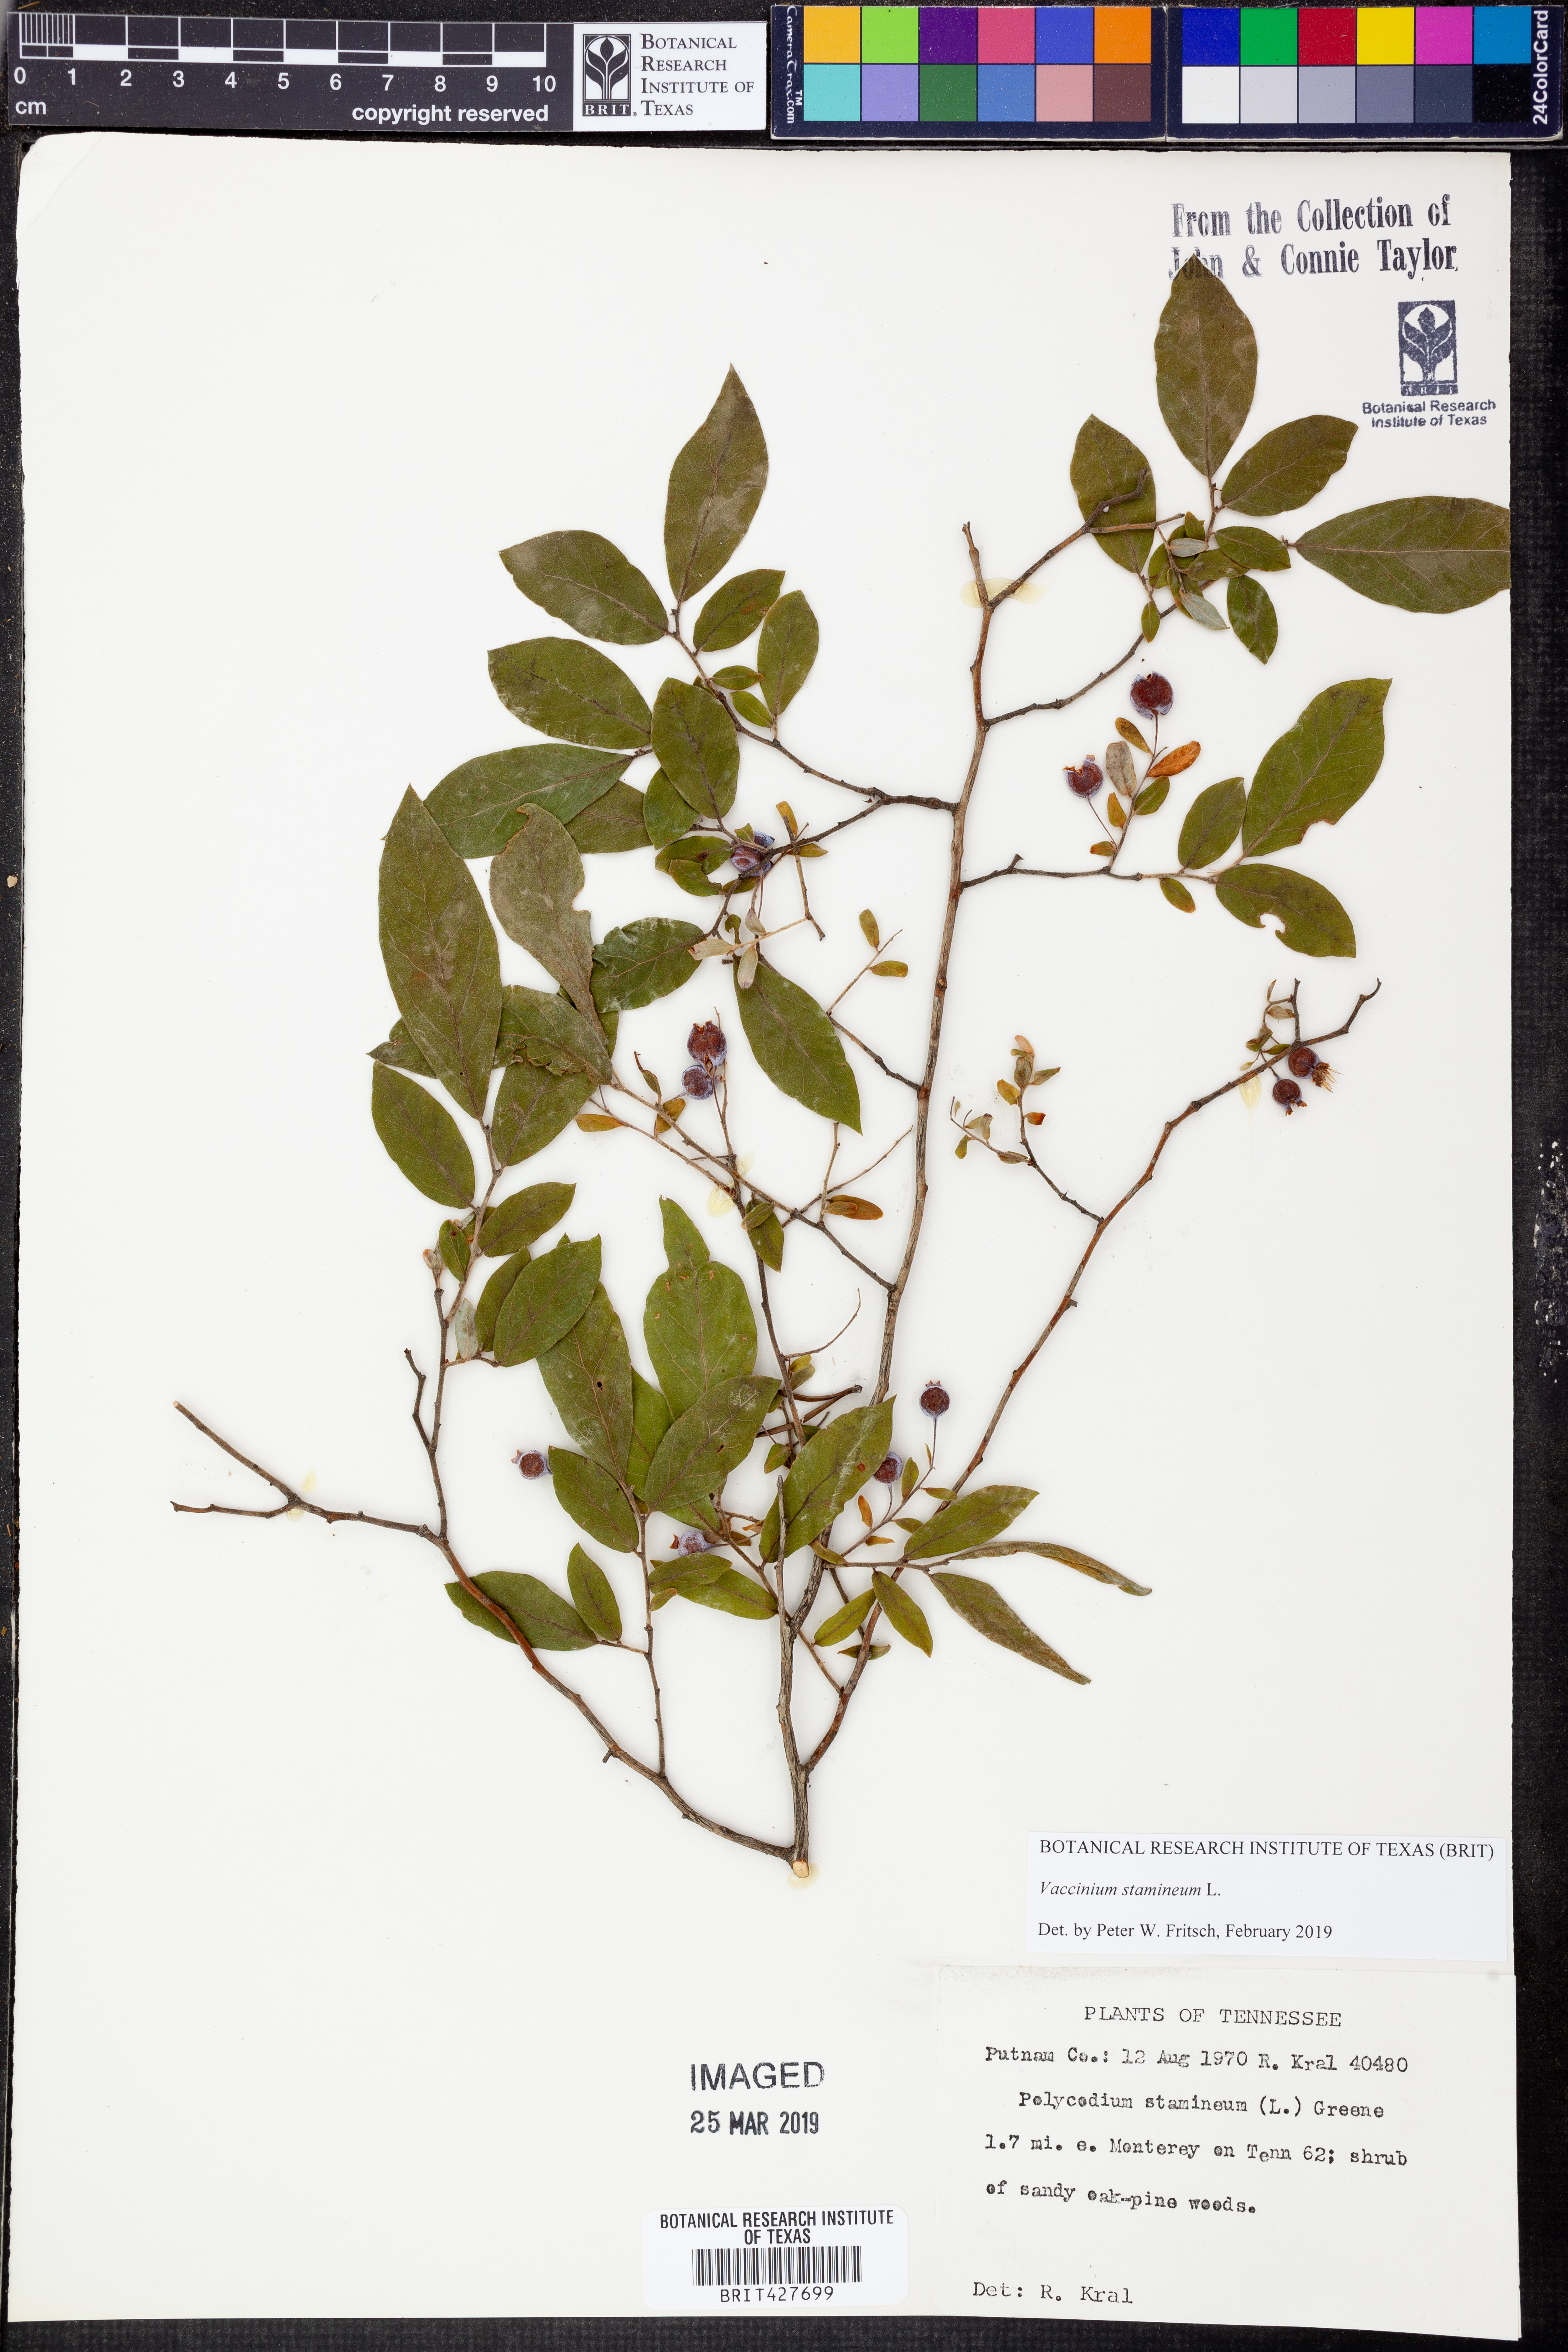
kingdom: Plantae
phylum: Tracheophyta
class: Magnoliopsida
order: Ericales
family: Ericaceae
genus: Vaccinium
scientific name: Vaccinium stamineum
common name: Deerberry
